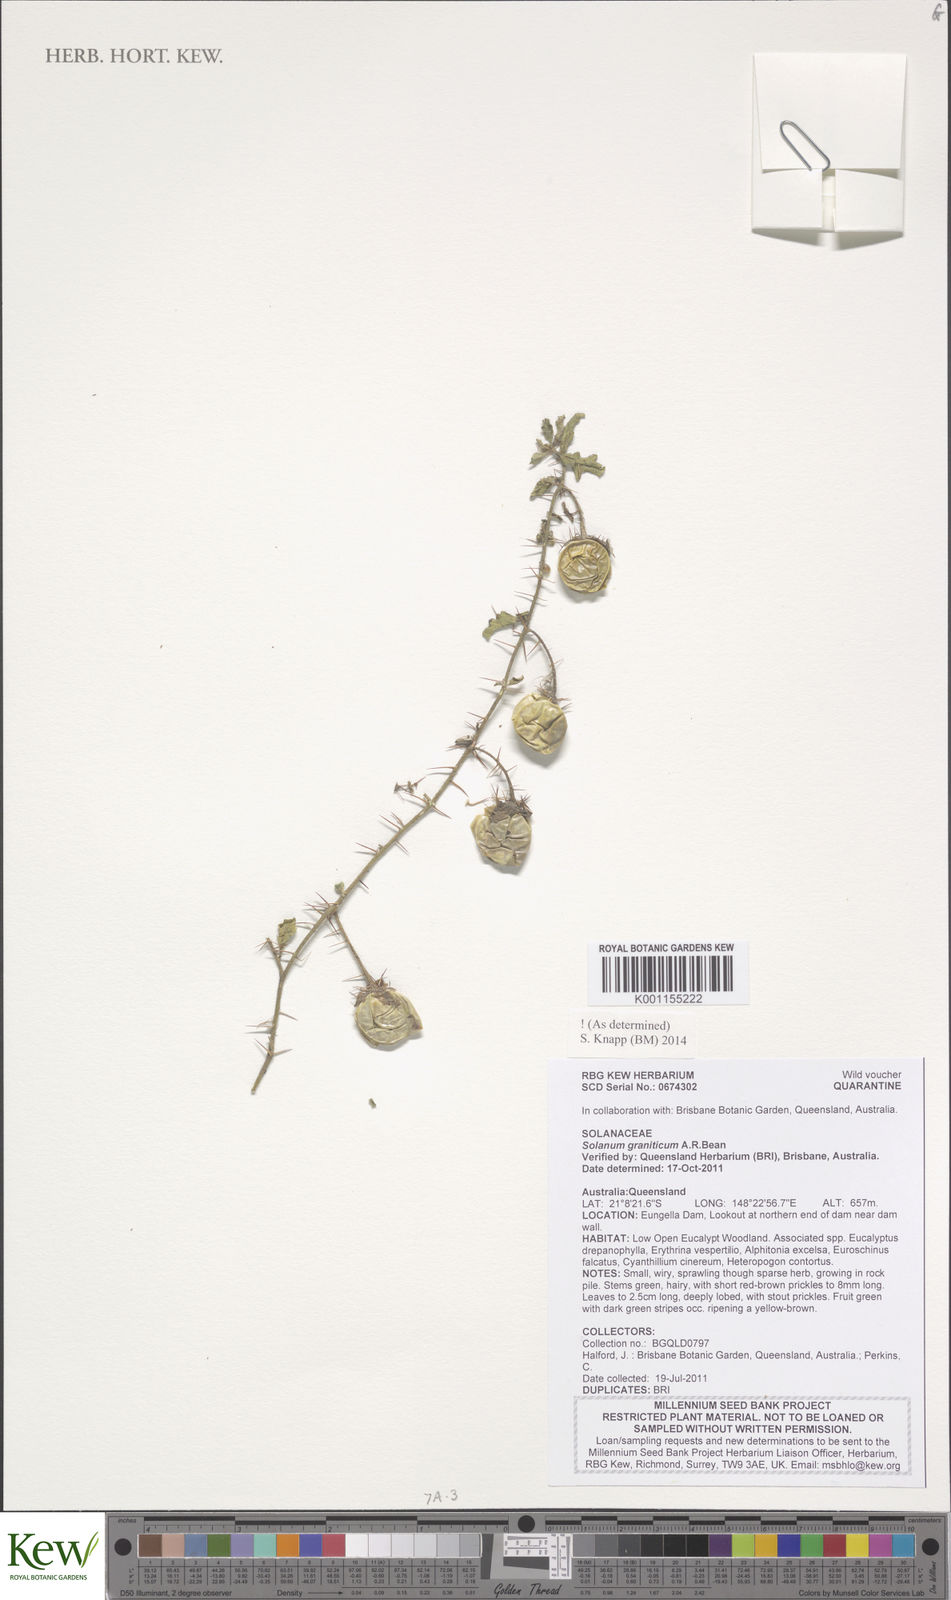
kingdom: Plantae
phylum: Tracheophyta
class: Magnoliopsida
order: Solanales
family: Solanaceae
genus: Solanum
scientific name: Solanum graniticum
